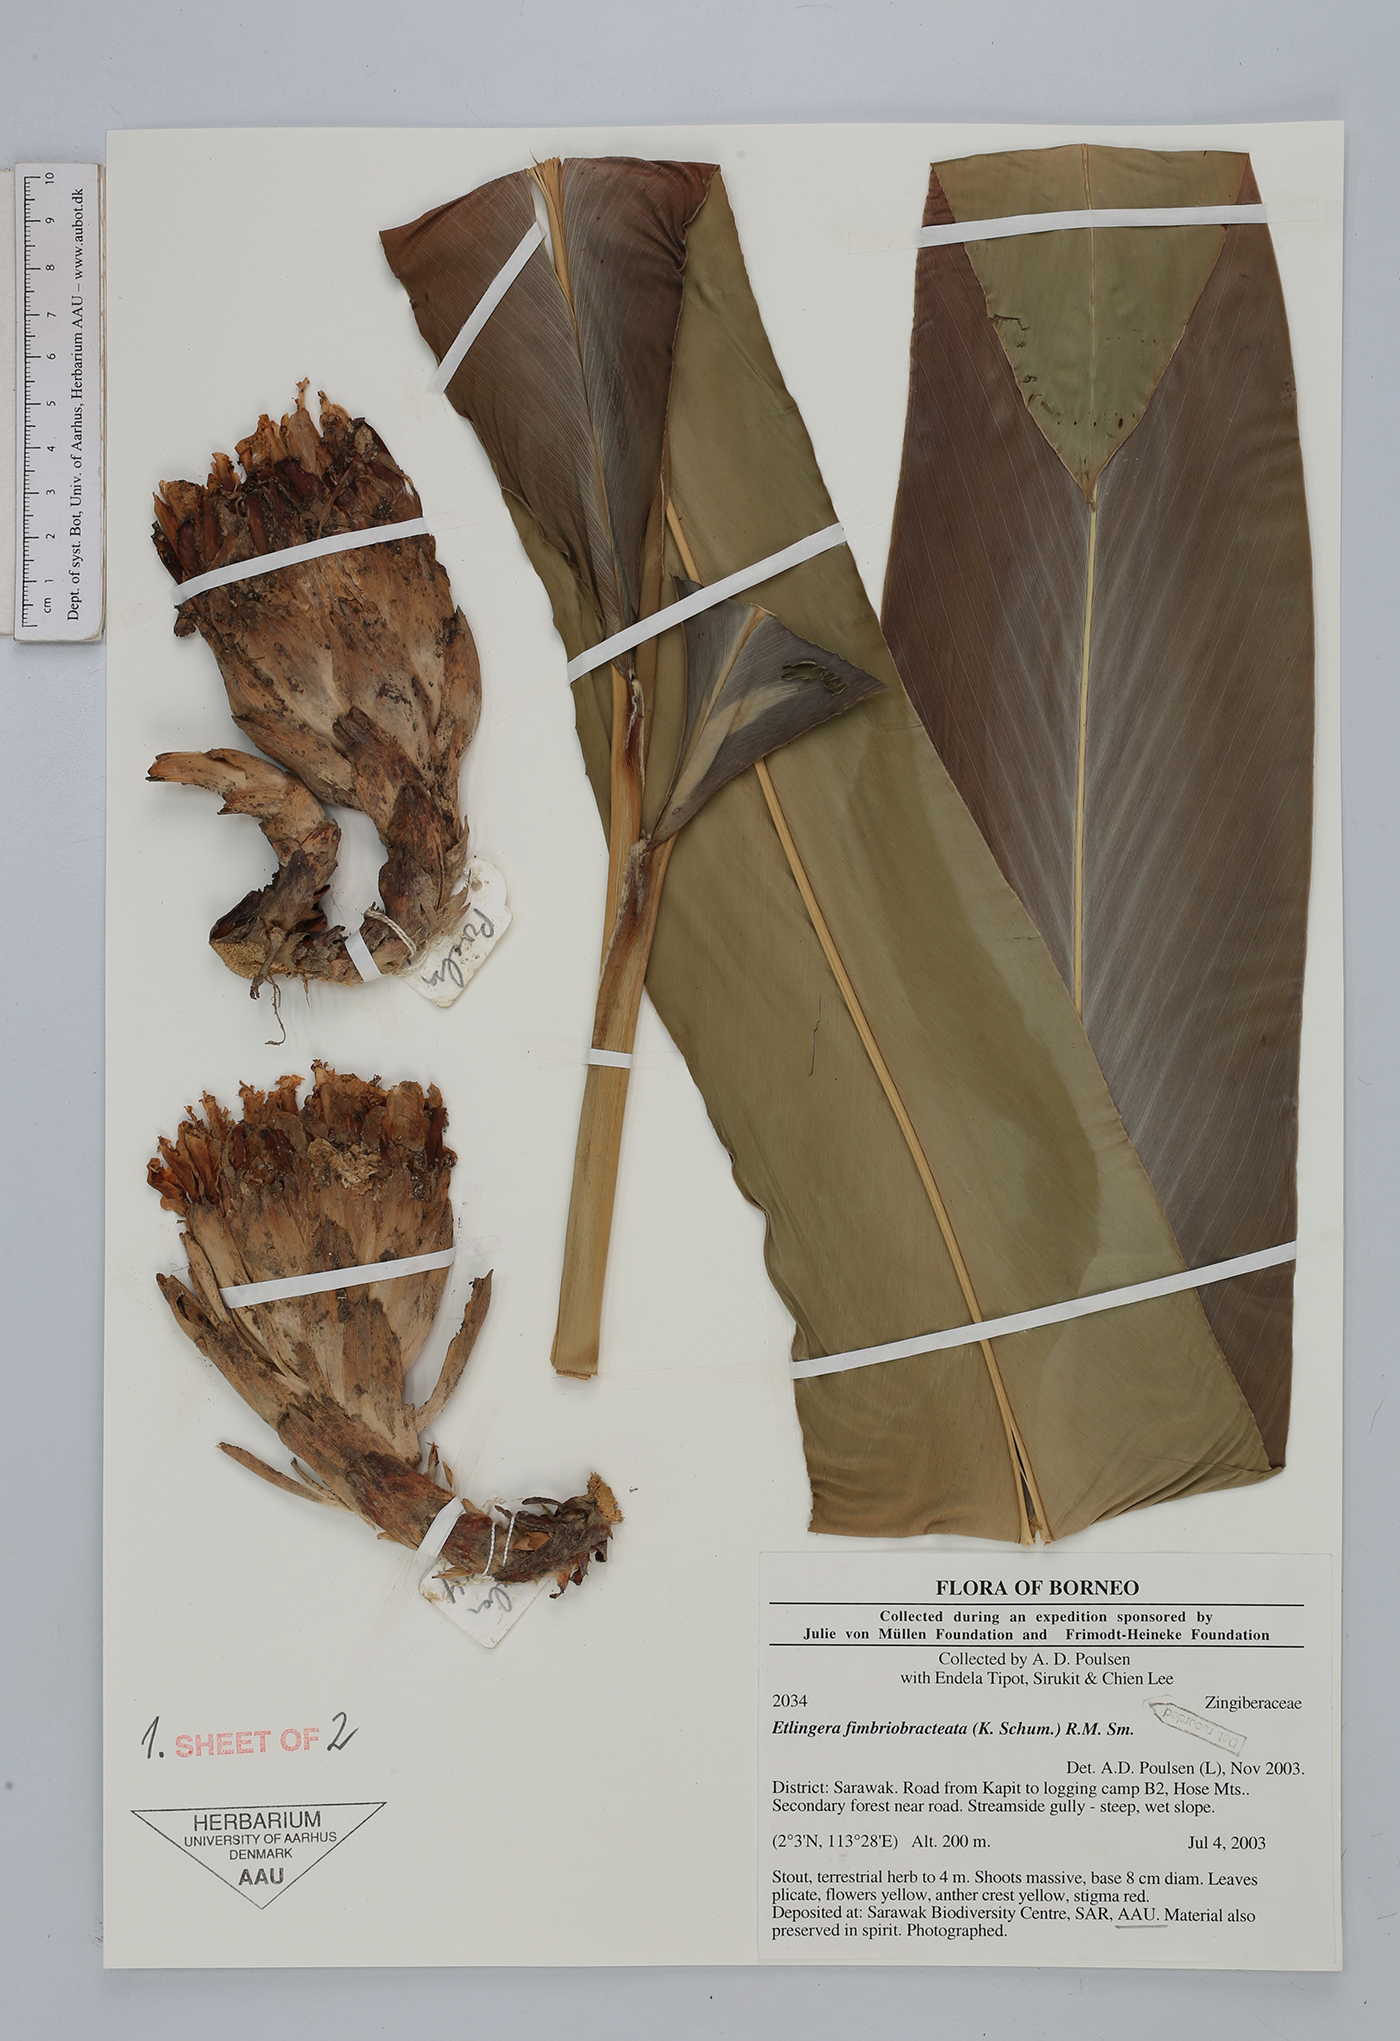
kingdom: Plantae
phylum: Tracheophyta
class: Liliopsida
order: Zingiberales
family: Zingiberaceae
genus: Etlingera
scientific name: Etlingera fimbriobracteata
